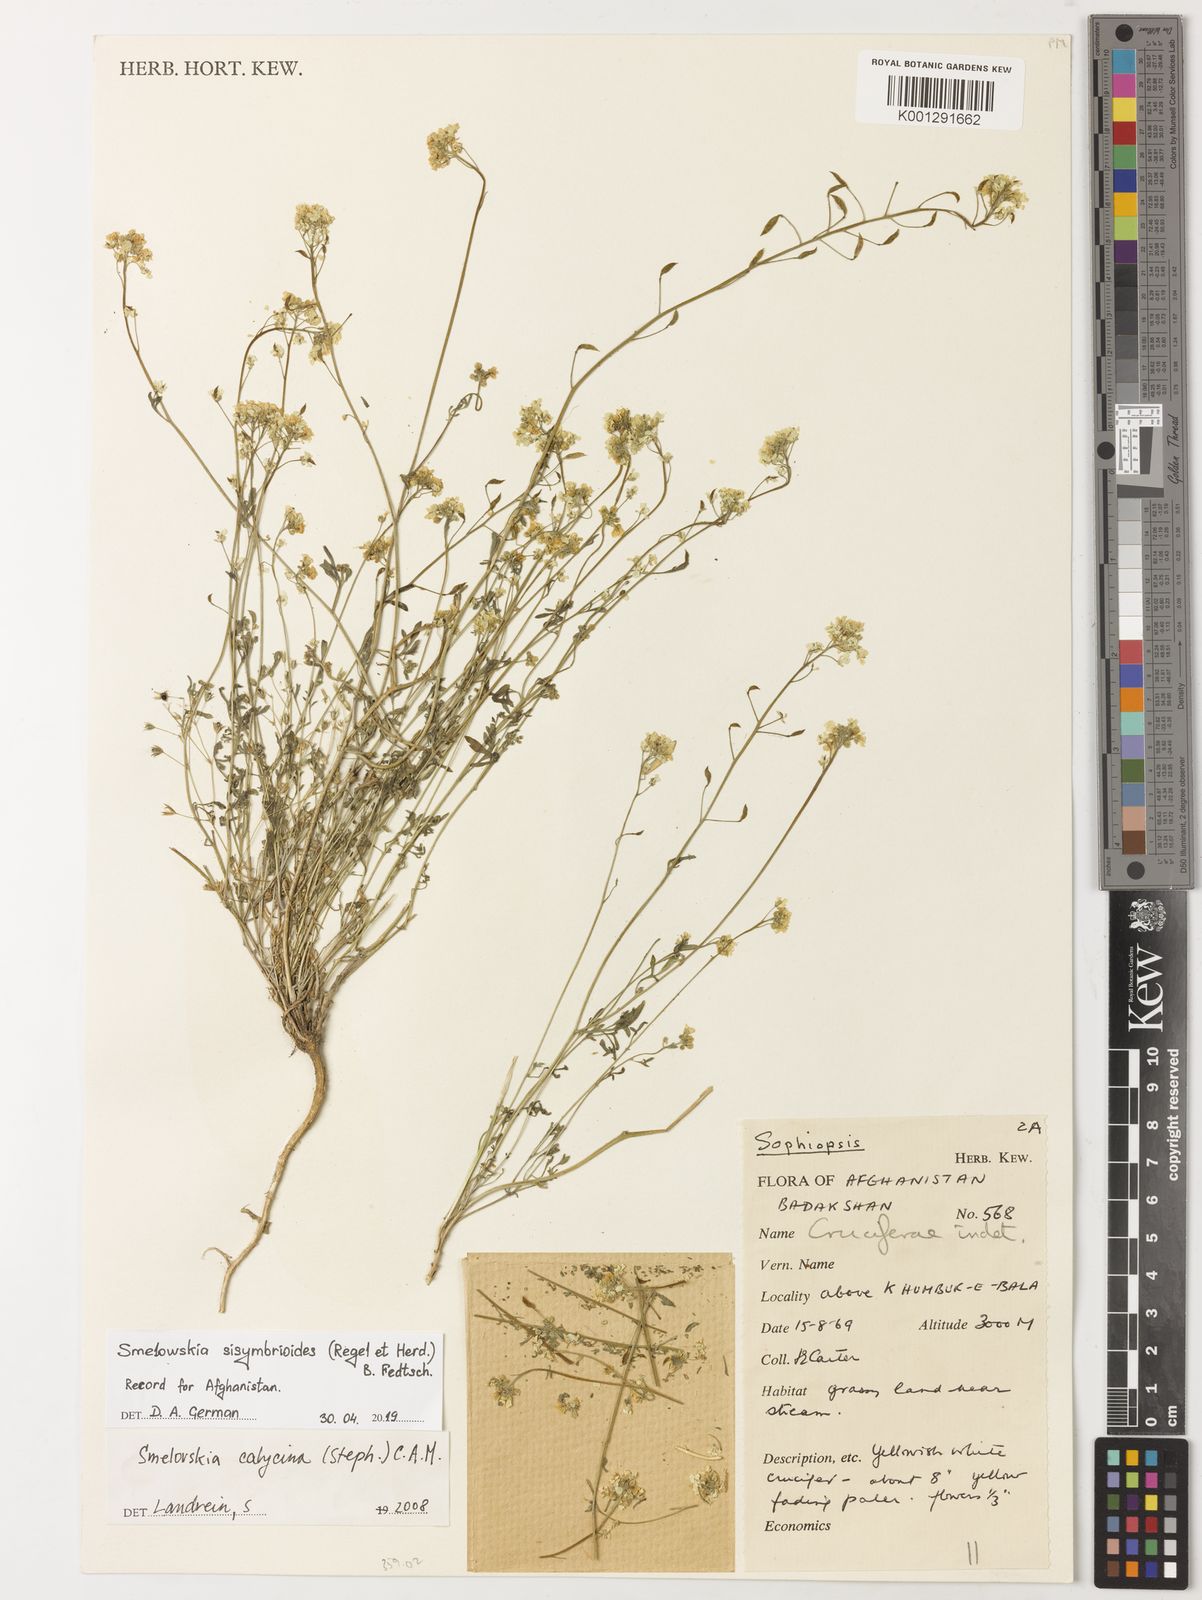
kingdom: Plantae
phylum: Tracheophyta
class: Magnoliopsida
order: Brassicales
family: Brassicaceae
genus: Smelowskia
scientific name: Smelowskia
